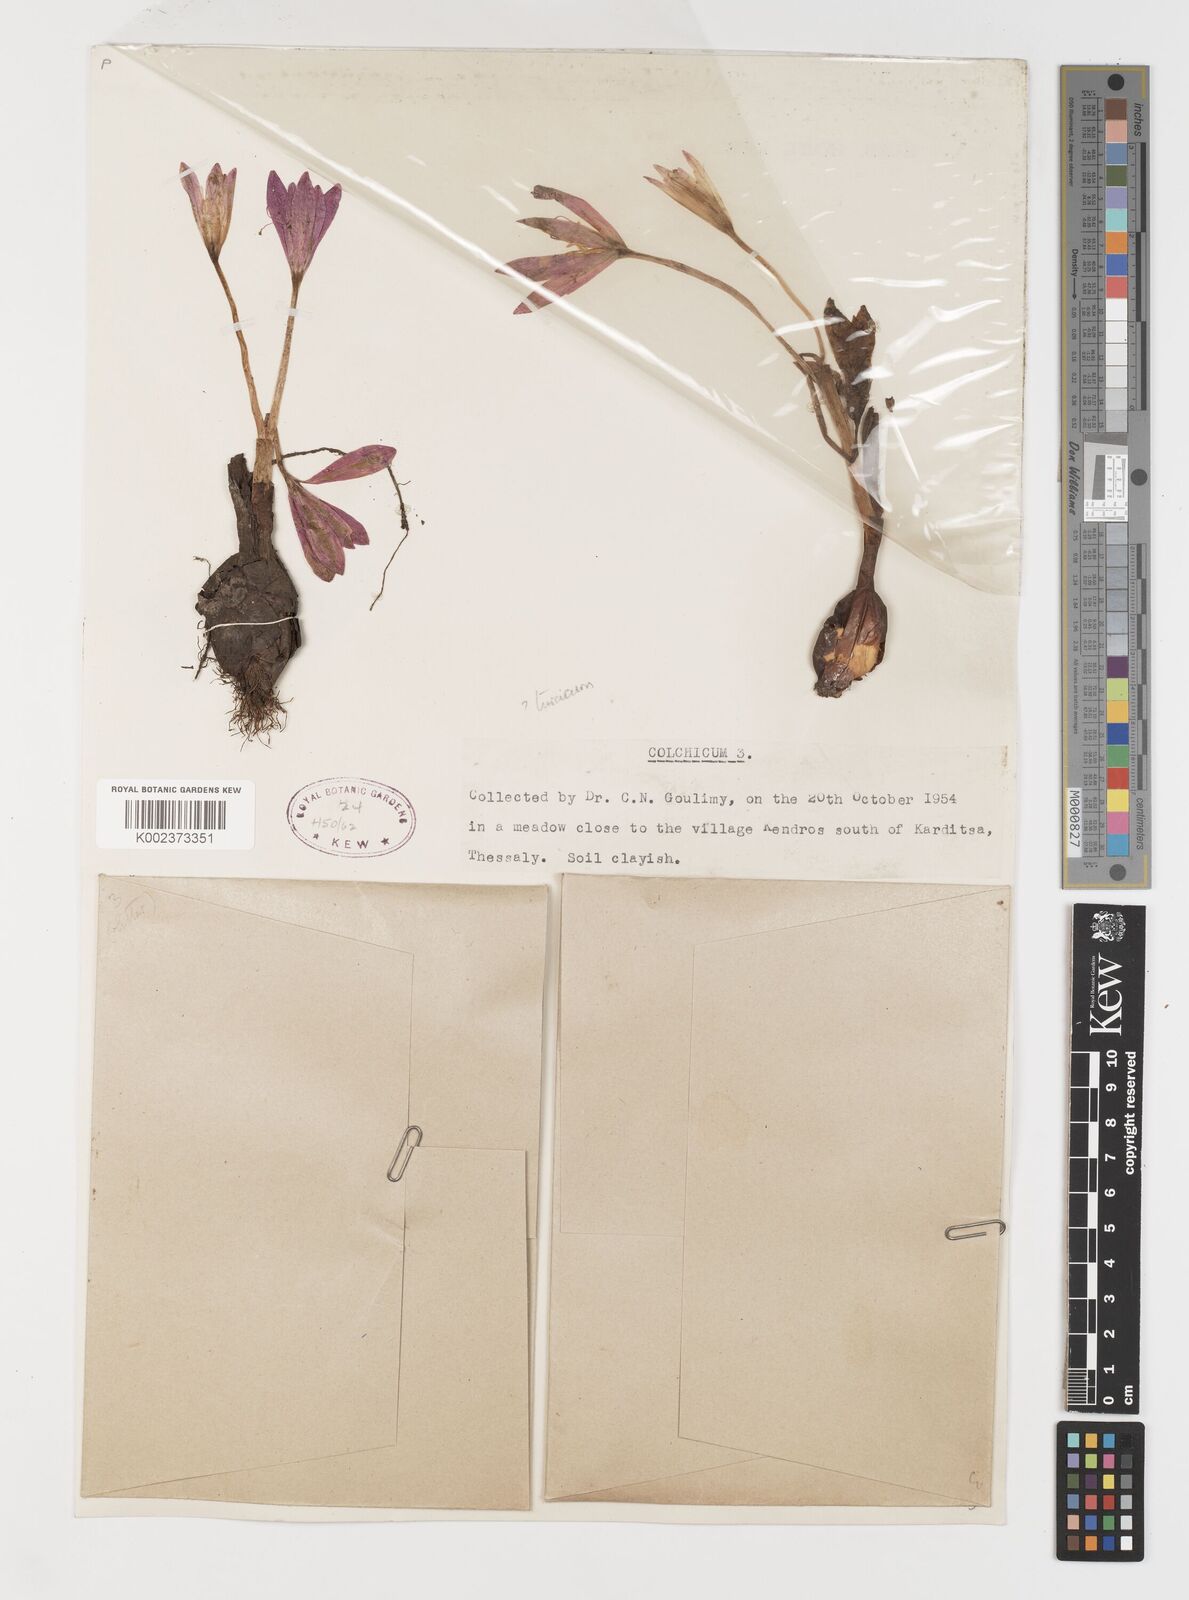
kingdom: Plantae
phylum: Tracheophyta
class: Liliopsida
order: Liliales
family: Colchicaceae
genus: Colchicum
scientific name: Colchicum turcicum
